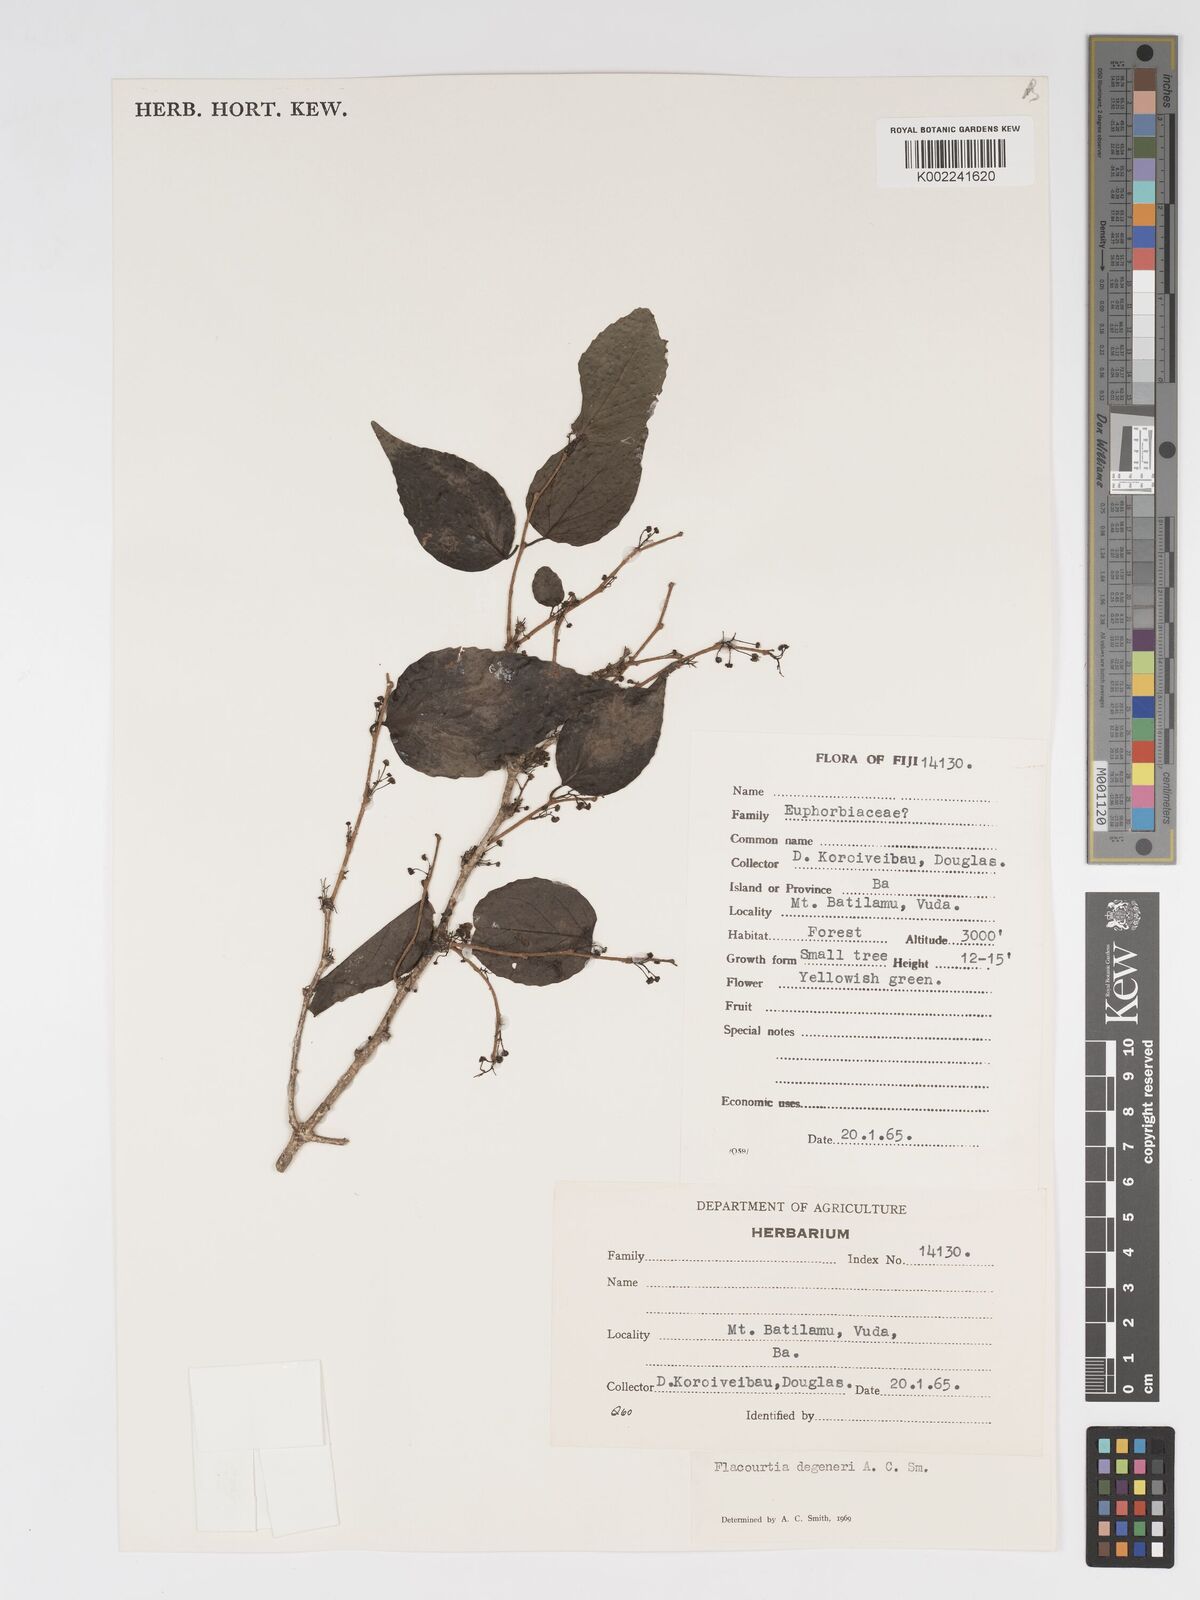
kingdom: Plantae
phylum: Tracheophyta
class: Magnoliopsida
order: Malpighiales
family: Salicaceae
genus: Flacourtia
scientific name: Flacourtia degeneri
